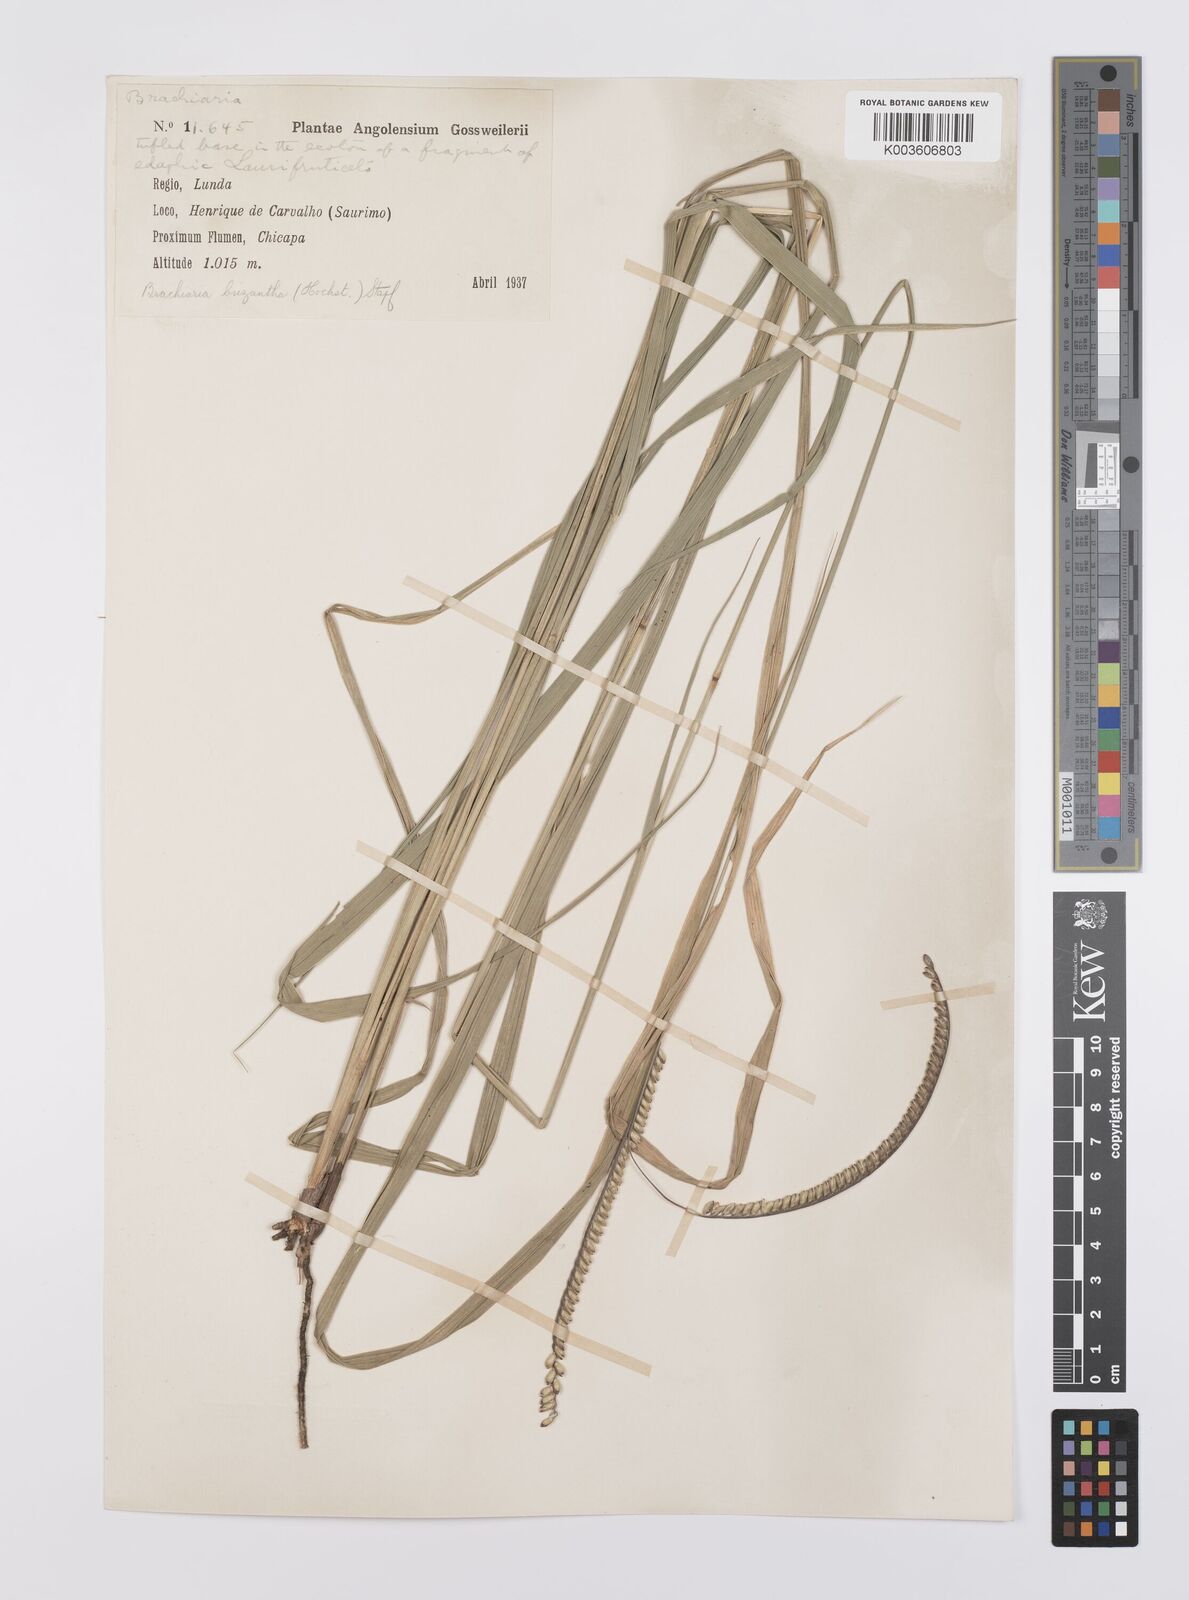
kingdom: Plantae
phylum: Tracheophyta
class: Liliopsida
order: Poales
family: Poaceae
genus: Urochloa
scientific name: Urochloa brizantha
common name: Palisade signalgrass
